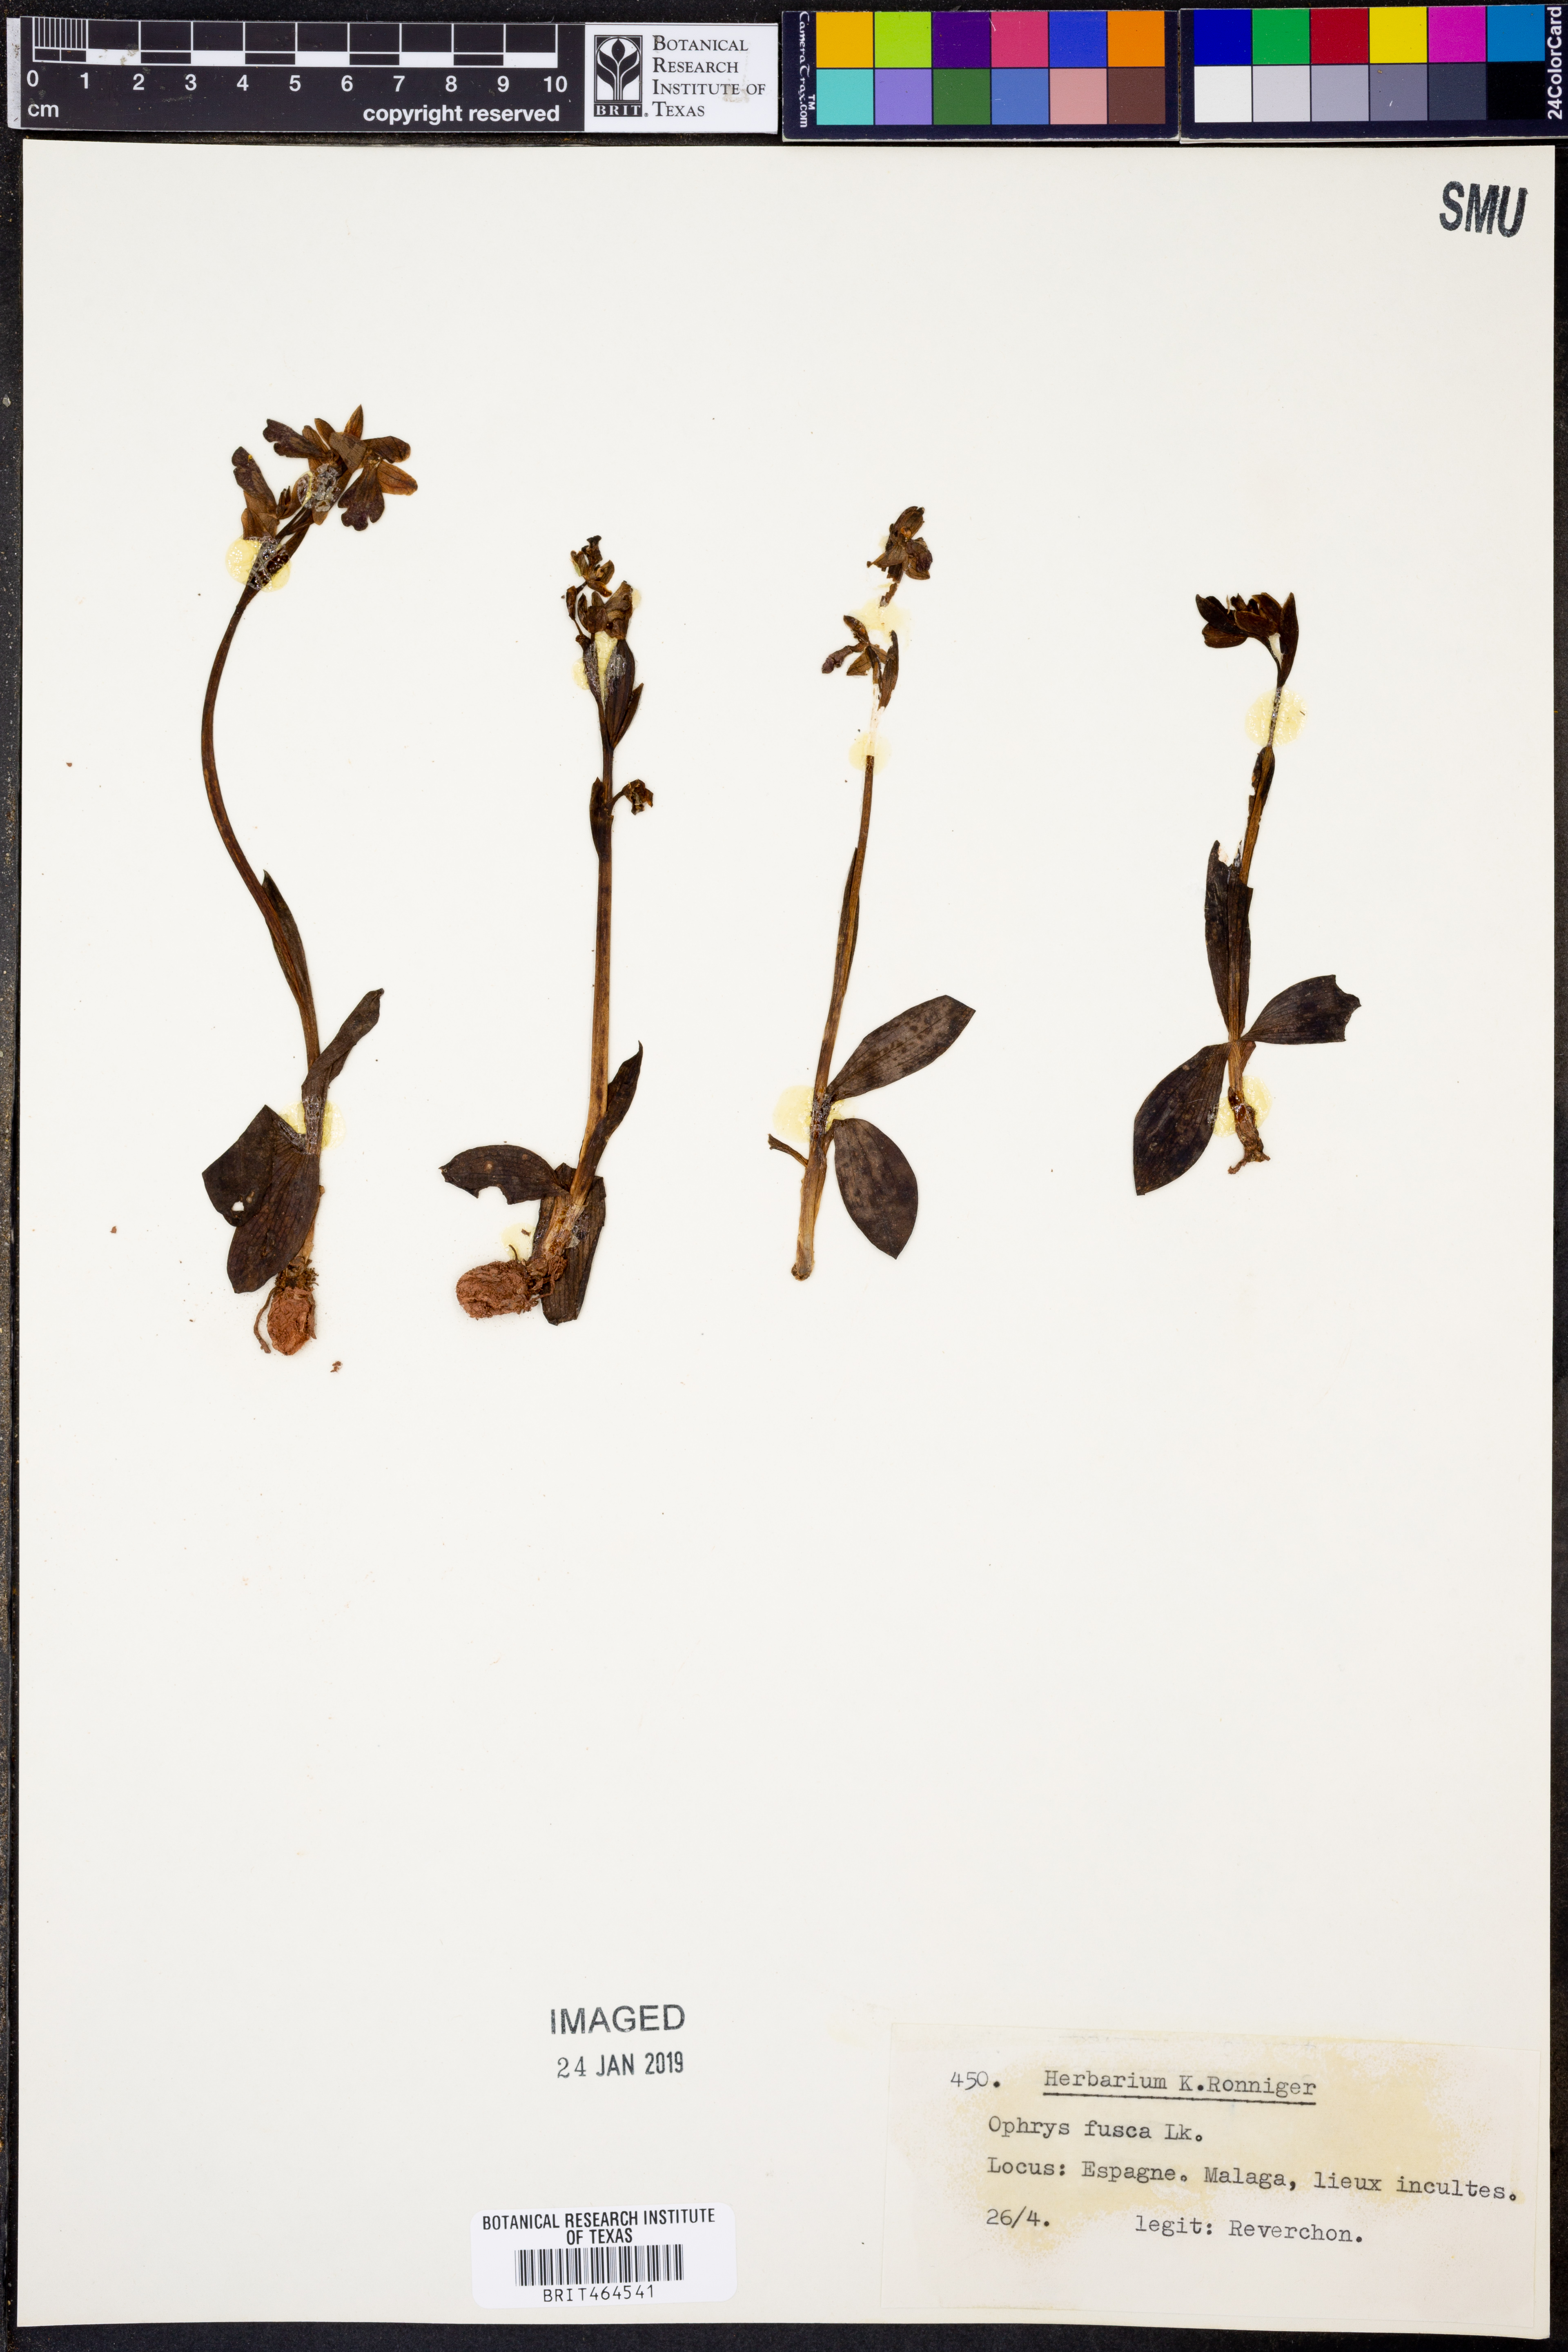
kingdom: Plantae
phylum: Tracheophyta
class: Liliopsida
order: Asparagales
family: Orchidaceae
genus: Ophrys
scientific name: Ophrys fusca
